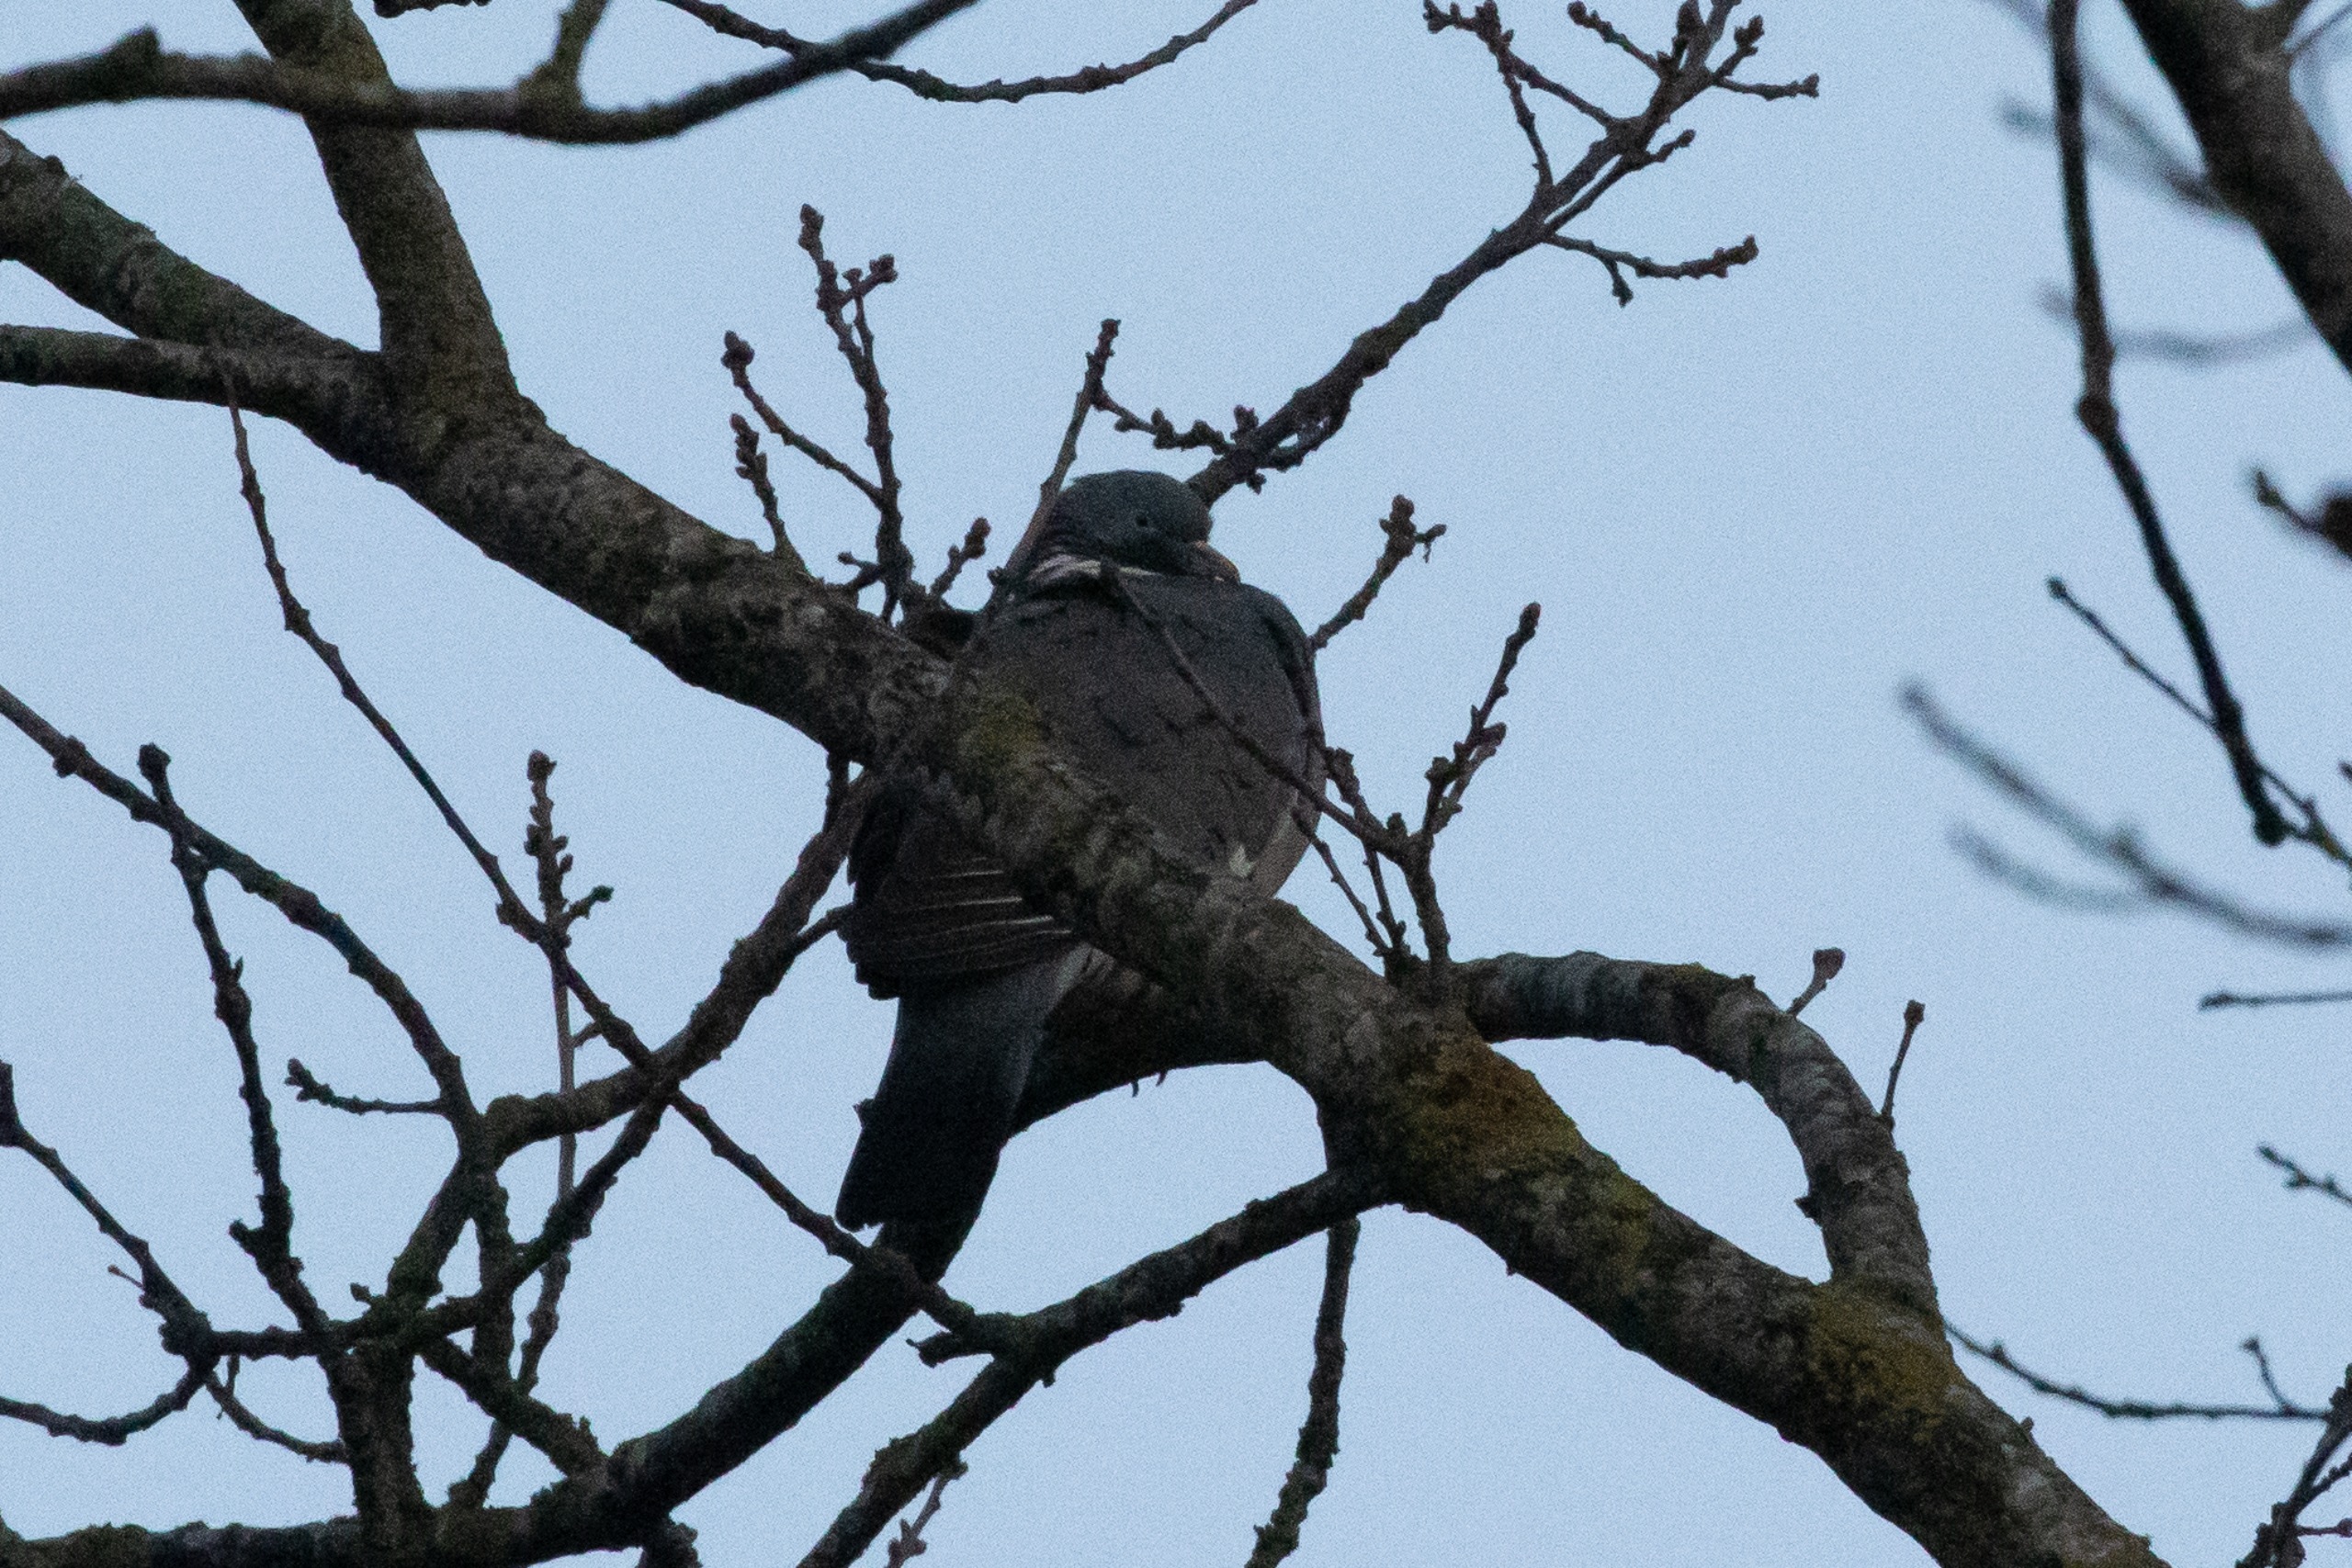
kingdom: Animalia
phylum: Chordata
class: Aves
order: Columbiformes
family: Columbidae
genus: Columba
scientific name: Columba palumbus
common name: Ringdue
